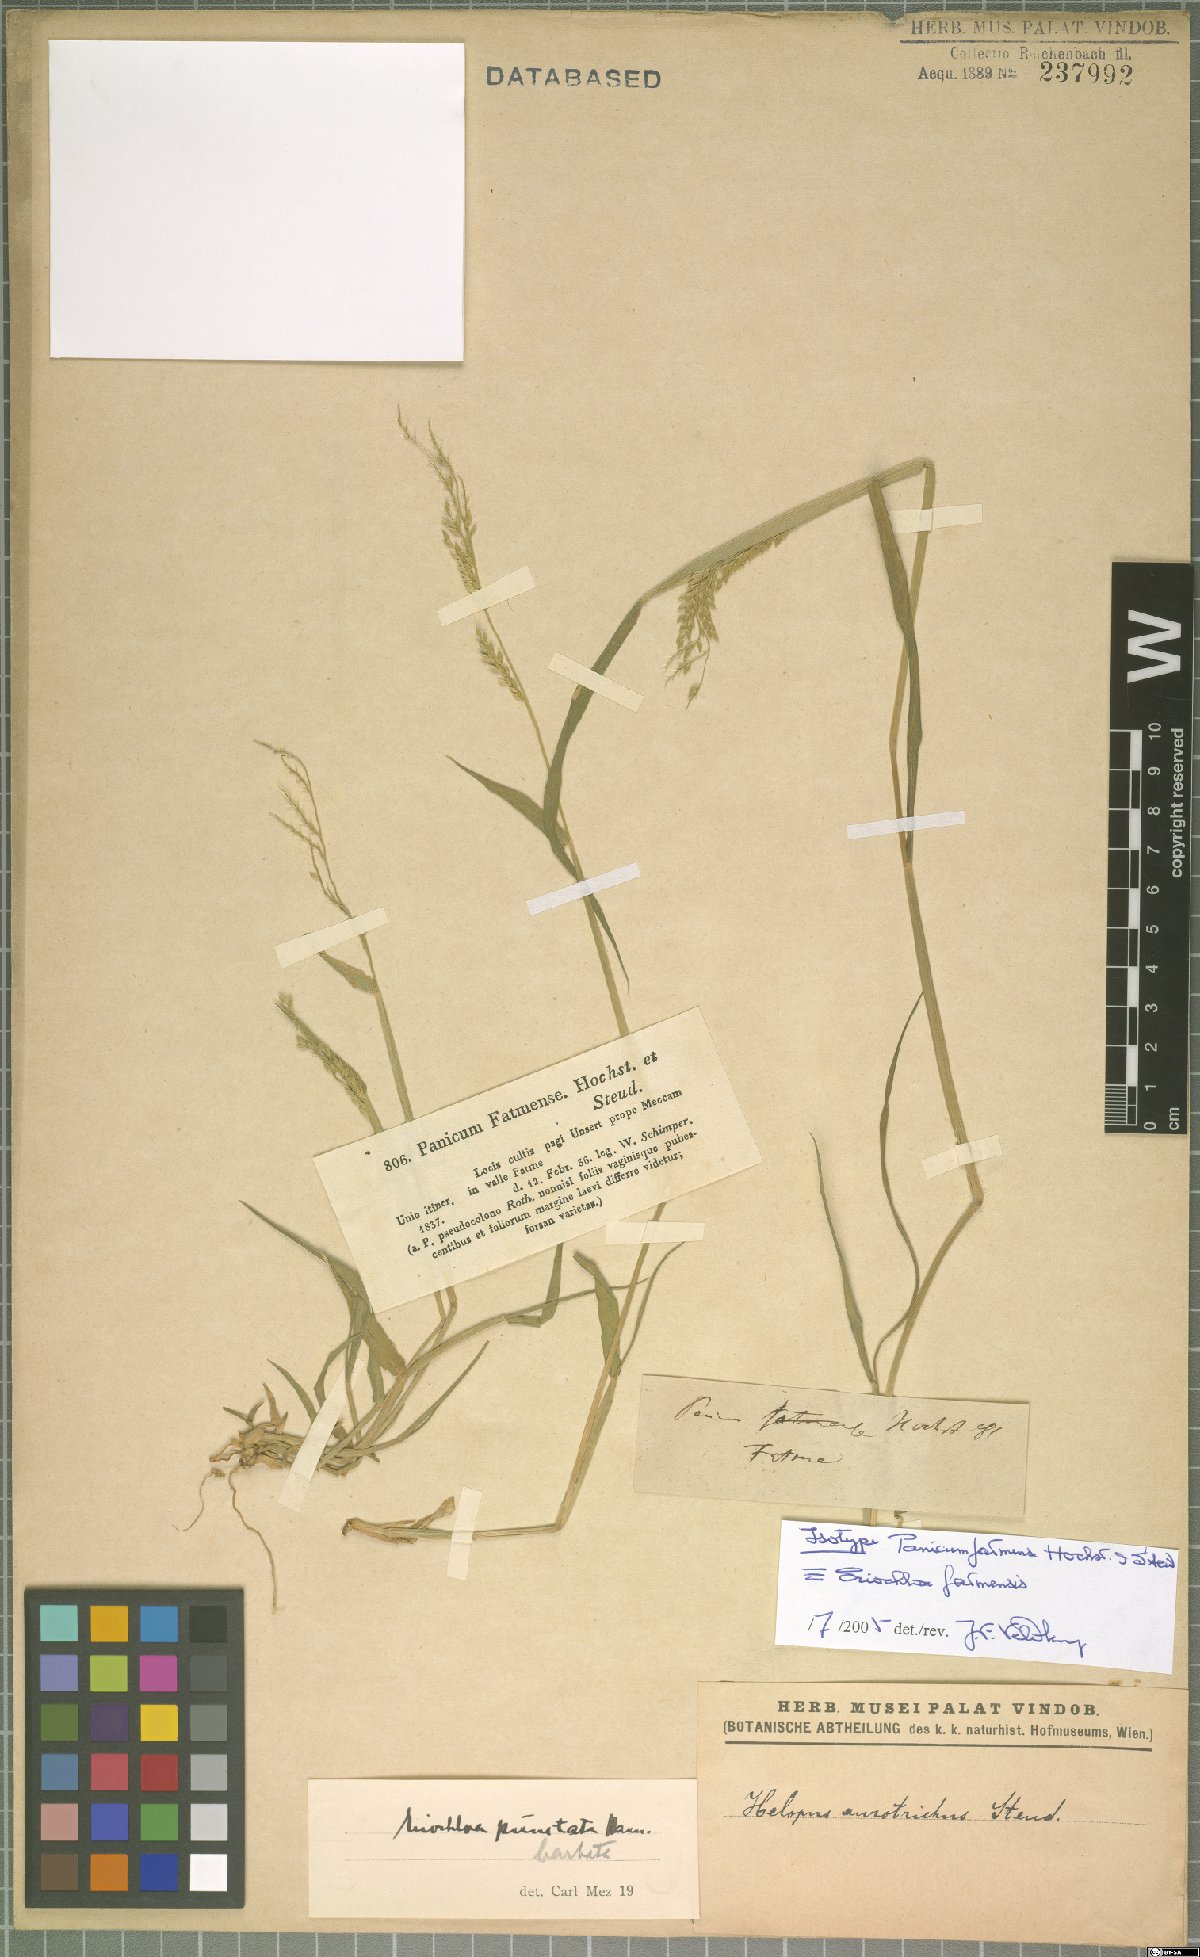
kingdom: Plantae
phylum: Tracheophyta
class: Liliopsida
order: Poales
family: Poaceae
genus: Eriochloa
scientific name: Eriochloa barbatus
